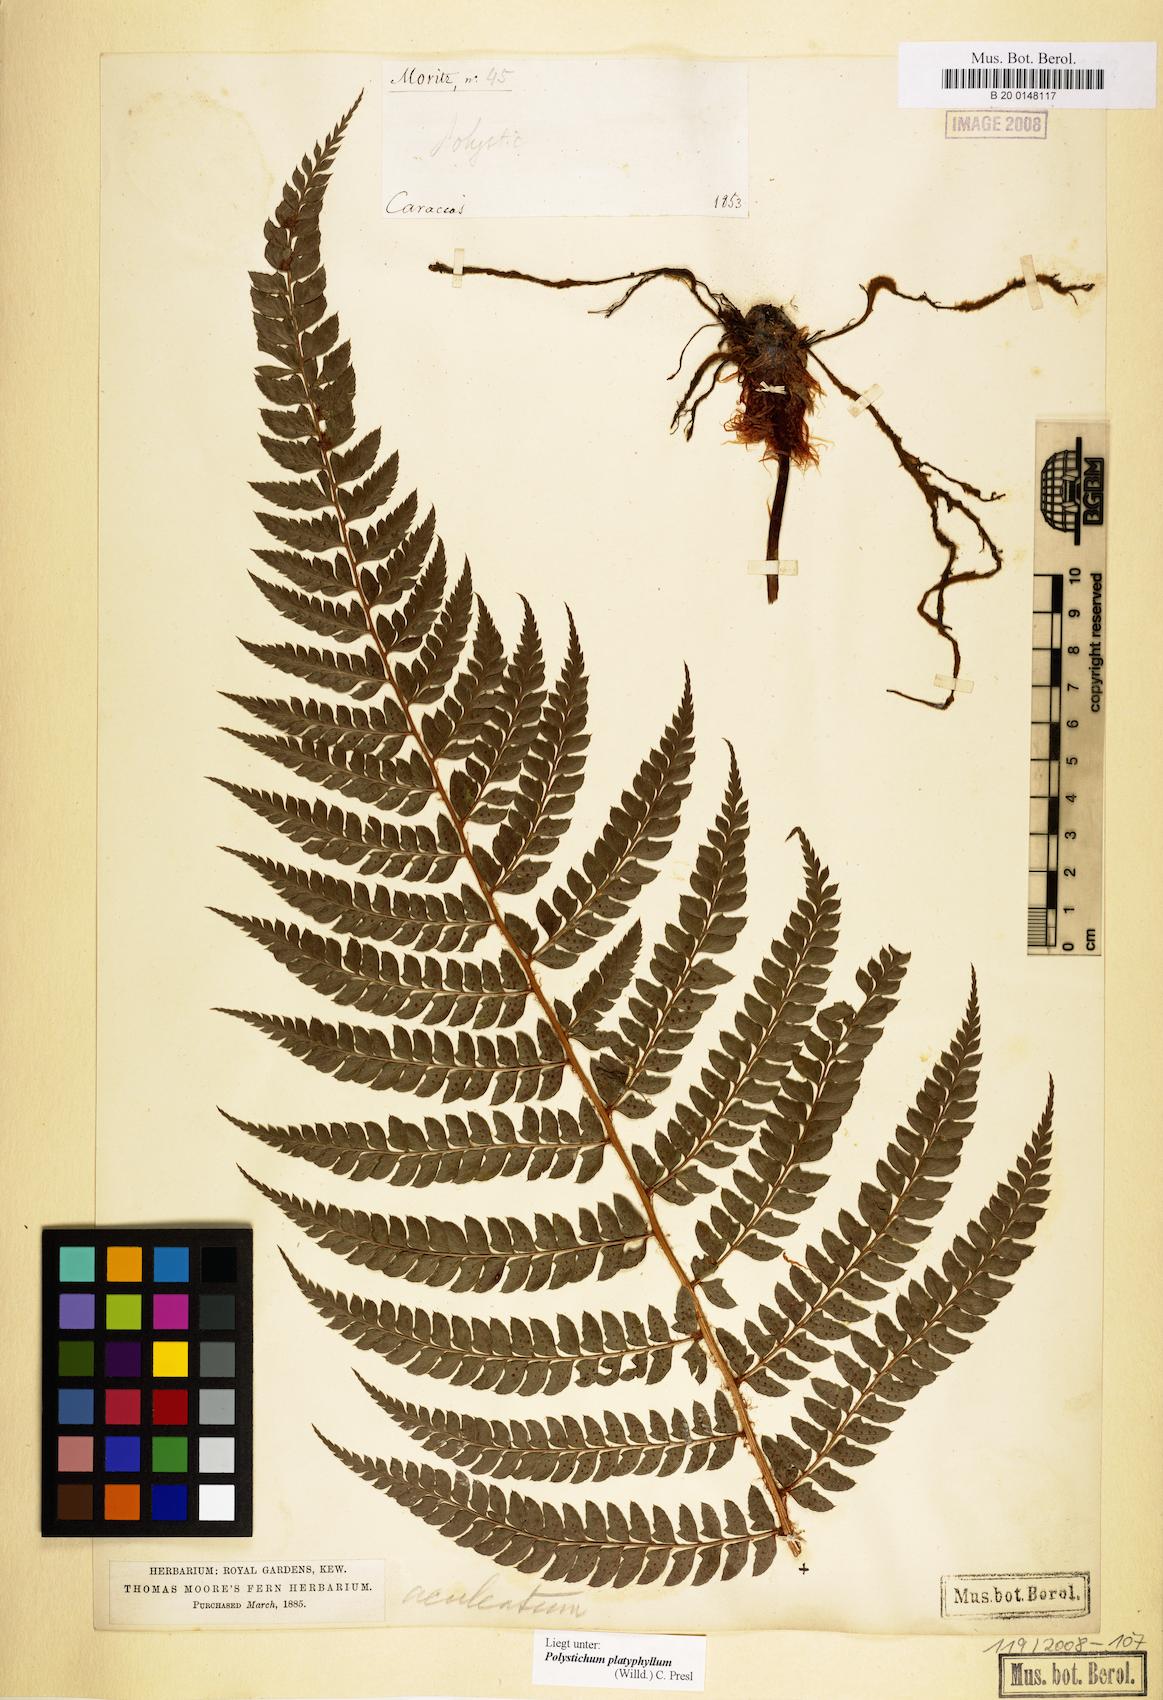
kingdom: Plantae
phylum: Tracheophyta
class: Polypodiopsida
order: Polypodiales
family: Dryopteridaceae
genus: Polystichum
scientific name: Polystichum platyphyllum
